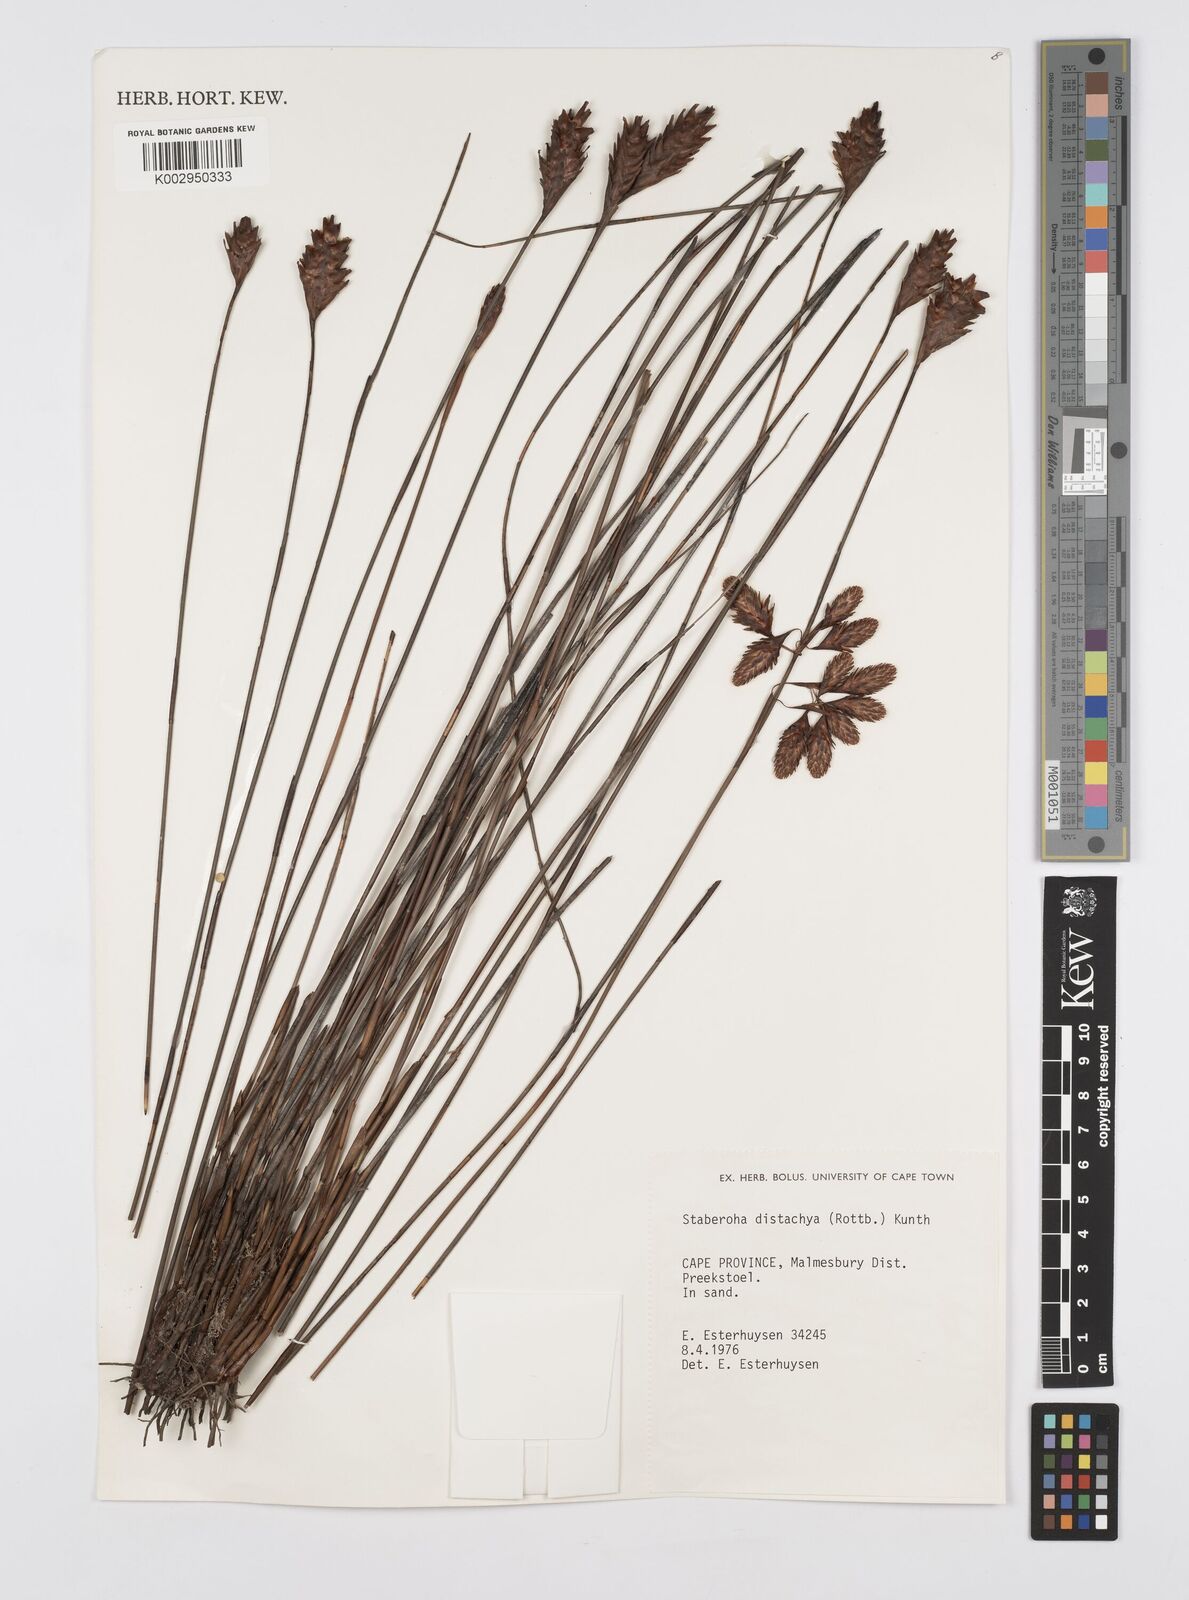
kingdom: Plantae
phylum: Tracheophyta
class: Liliopsida
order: Poales
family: Restionaceae
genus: Staberoha
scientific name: Staberoha distachyos
